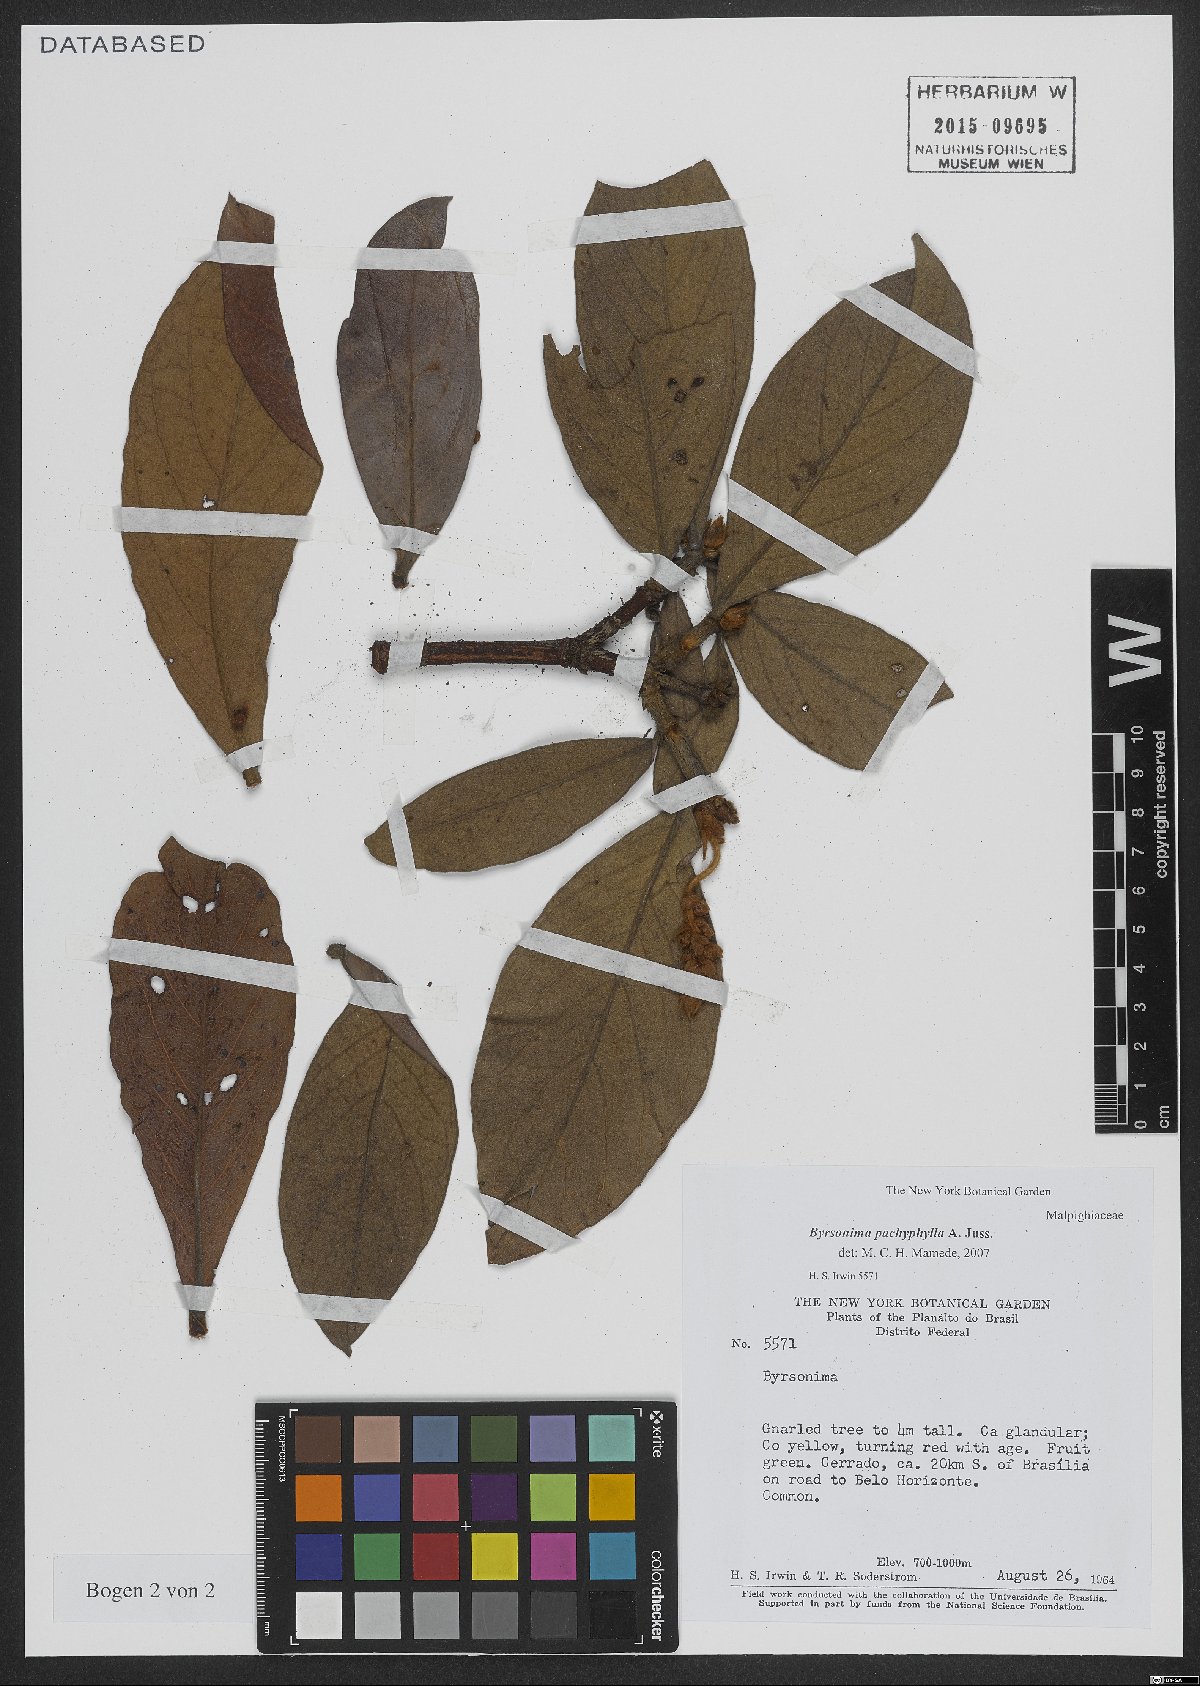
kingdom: Plantae
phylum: Tracheophyta
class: Magnoliopsida
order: Malpighiales
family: Malpighiaceae
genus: Byrsonima
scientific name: Byrsonima pachyphylla
